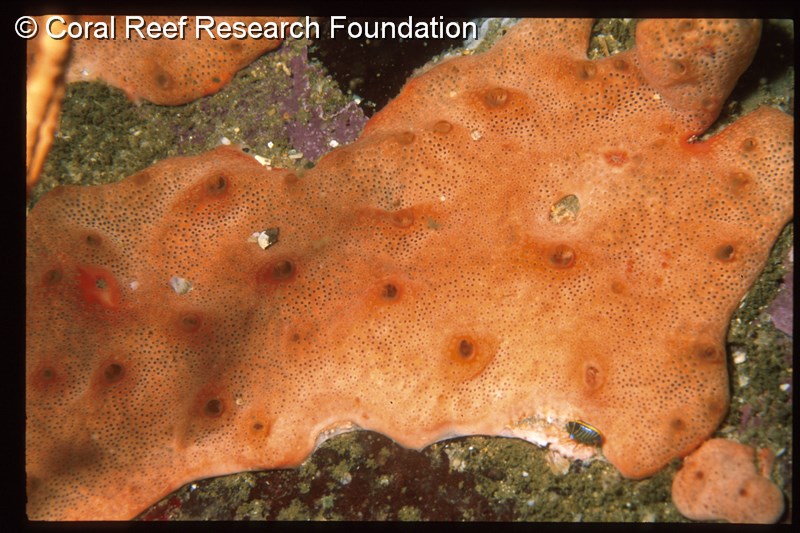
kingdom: Animalia
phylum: Chordata
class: Ascidiacea
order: Aplousobranchia
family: Didemnidae
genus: Lissoclinum
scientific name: Lissoclinum
